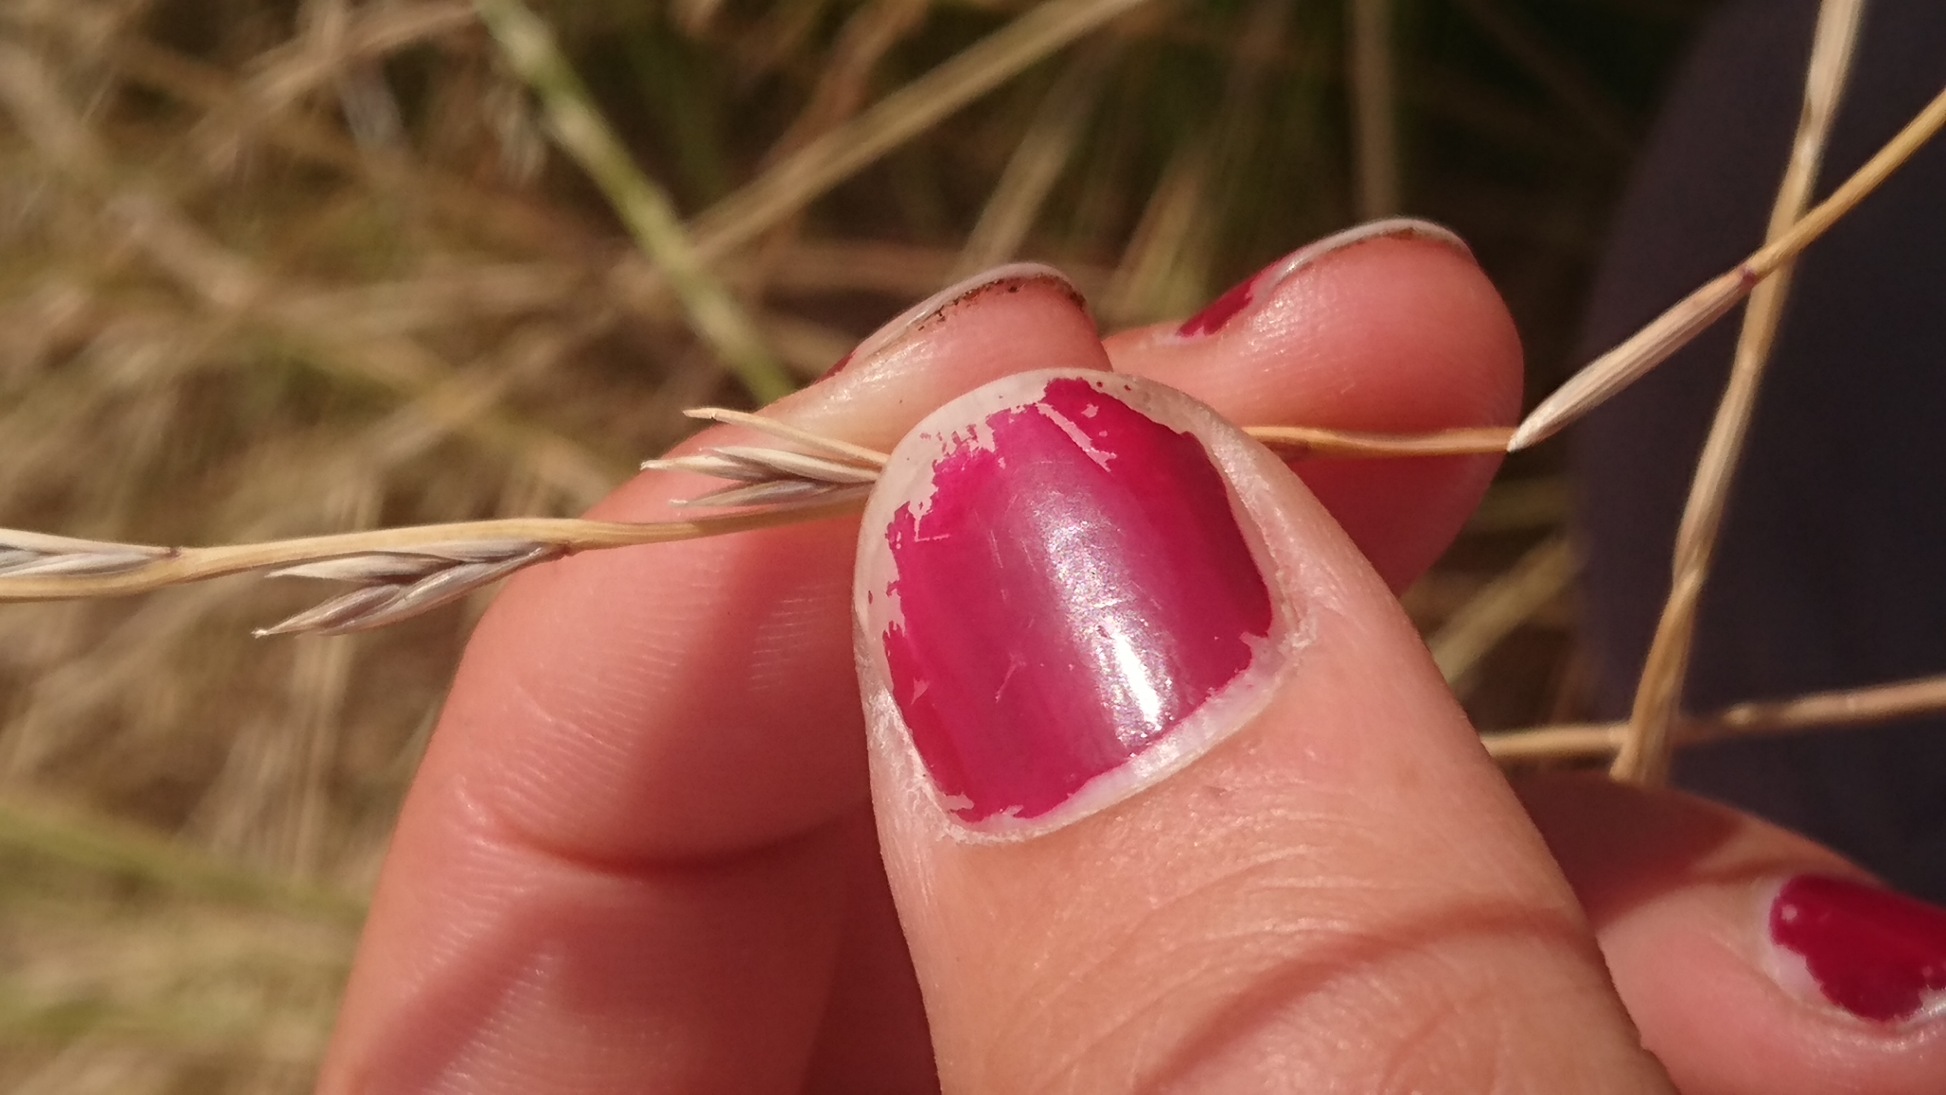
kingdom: Plantae
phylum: Tracheophyta
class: Liliopsida
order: Poales
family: Poaceae
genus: Lolium
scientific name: Lolium perenne
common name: Almindelig rajgræs
